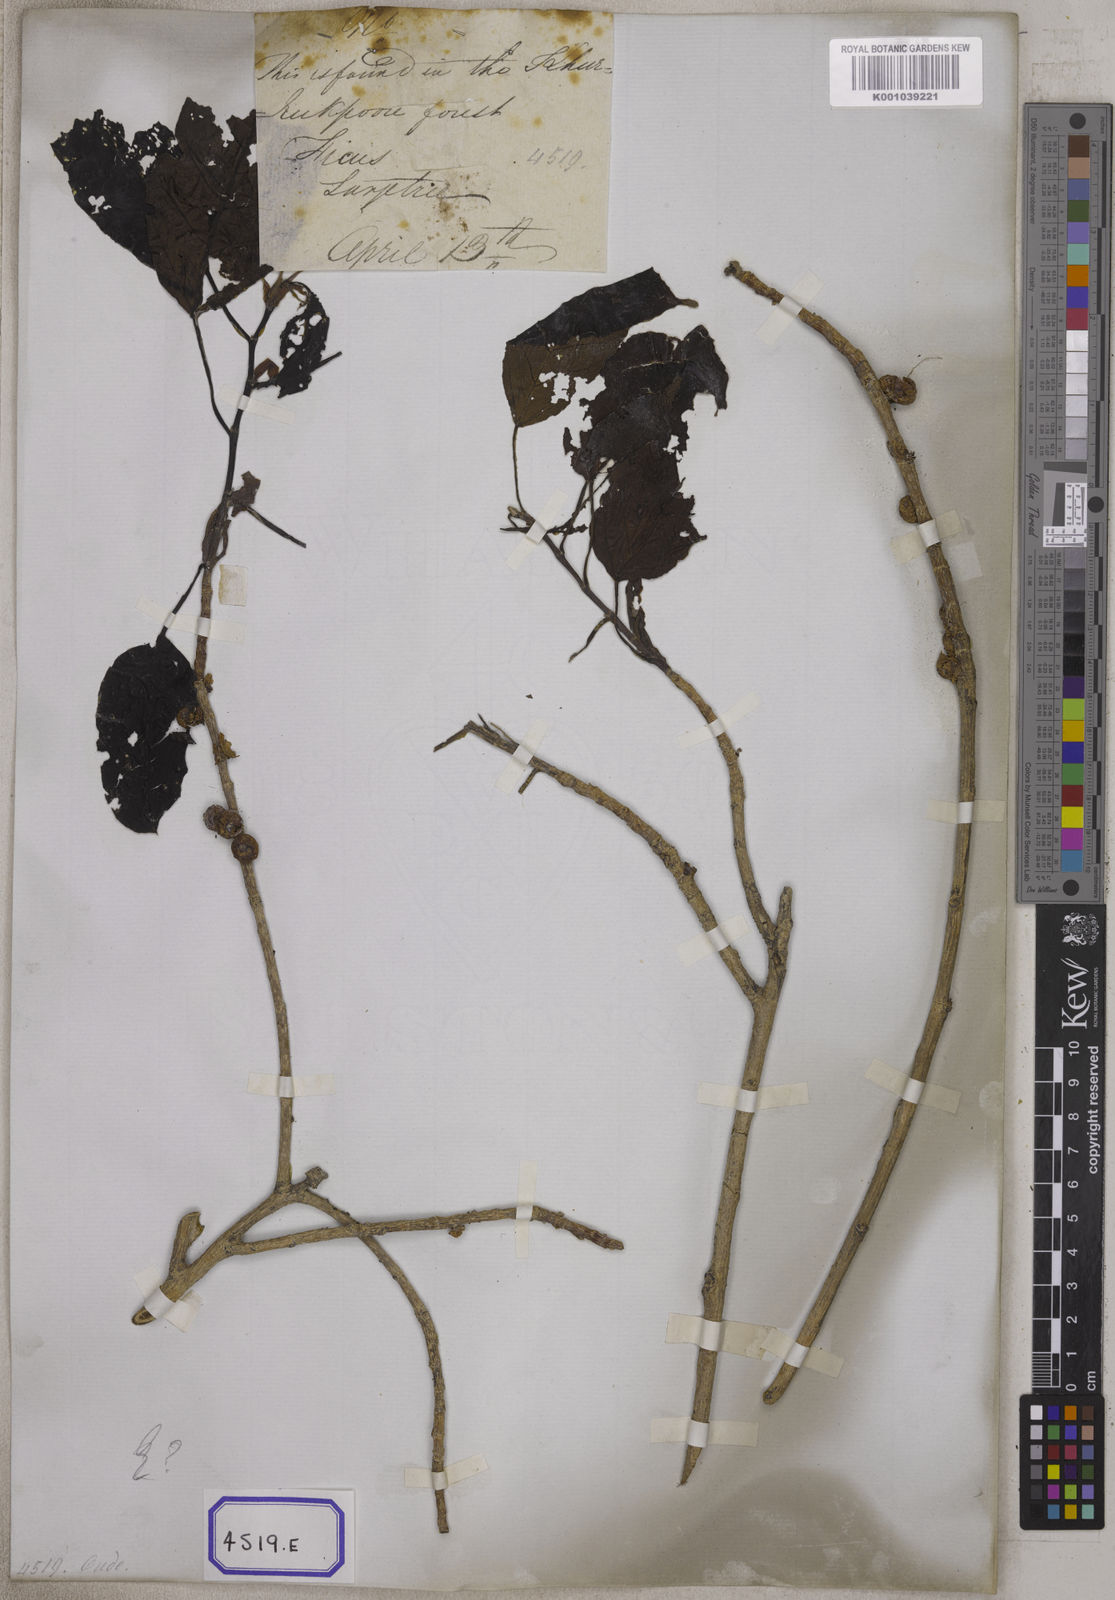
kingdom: Plantae
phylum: Tracheophyta
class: Magnoliopsida
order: Rosales
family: Moraceae
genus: Ficus
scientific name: Ficus
